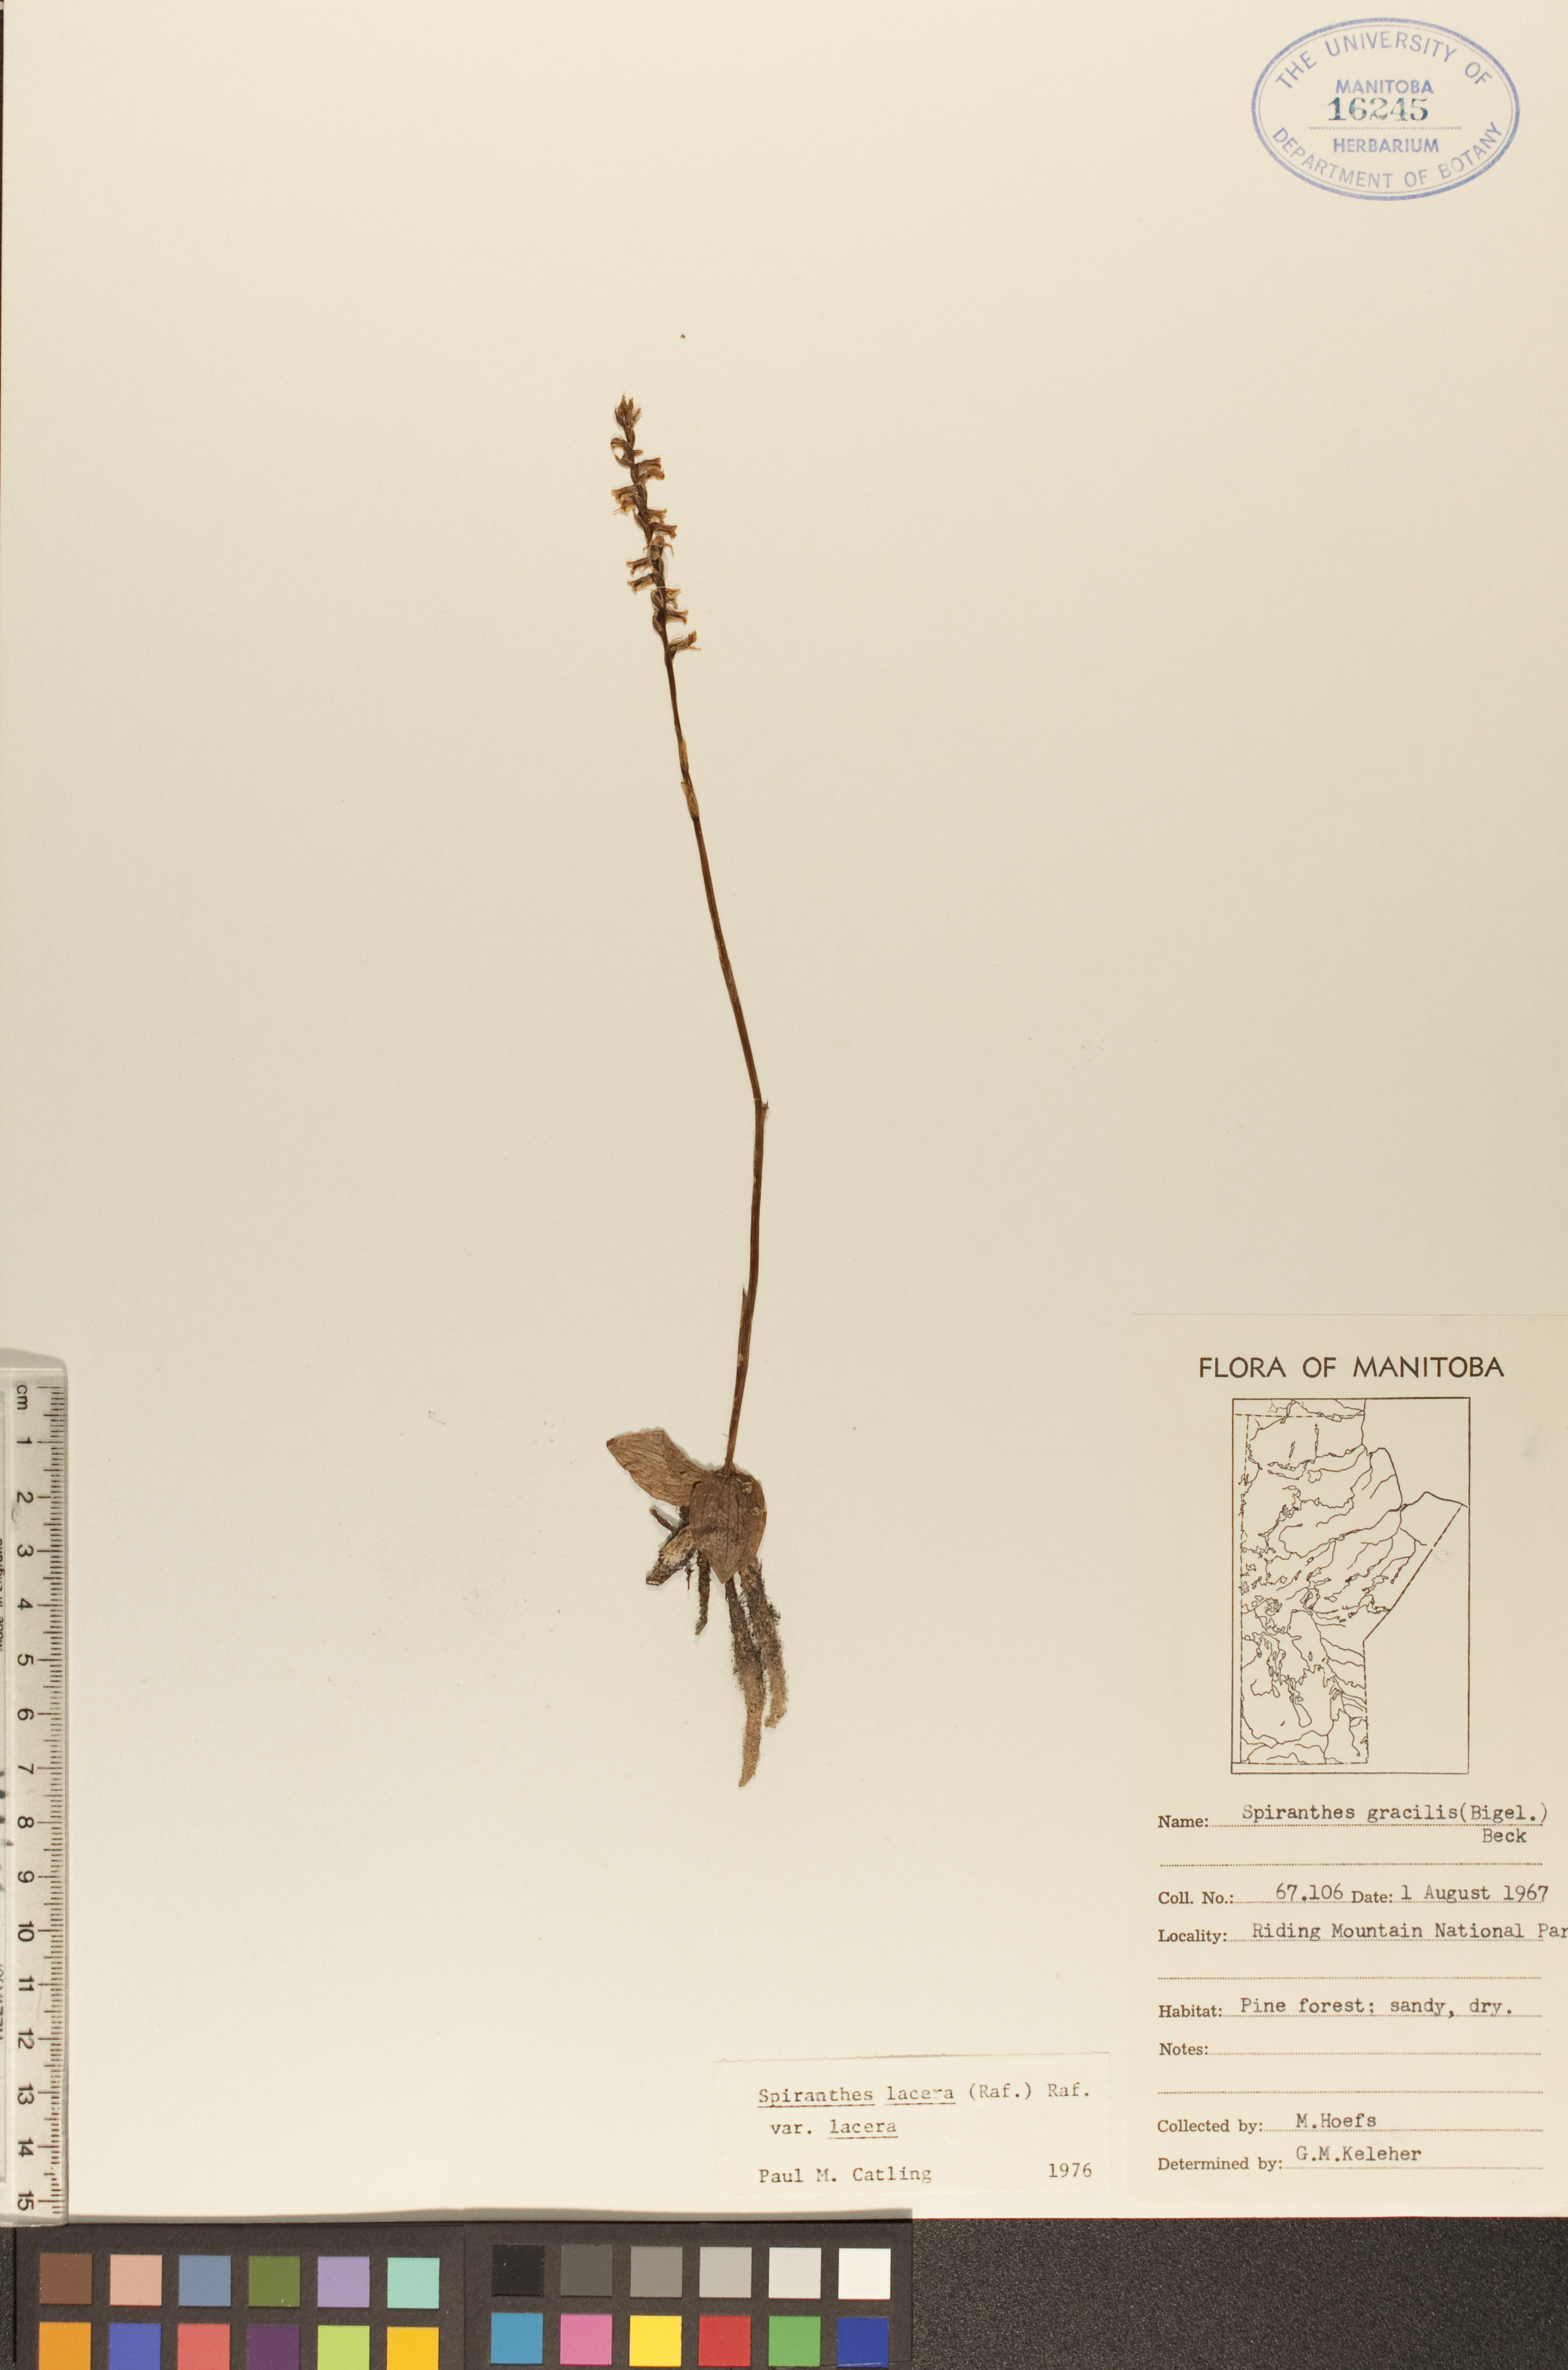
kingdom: Plantae
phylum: Tracheophyta
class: Liliopsida
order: Asparagales
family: Orchidaceae
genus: Spiranthes
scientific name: Spiranthes lacera
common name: Northern slender ladies'-tresses
